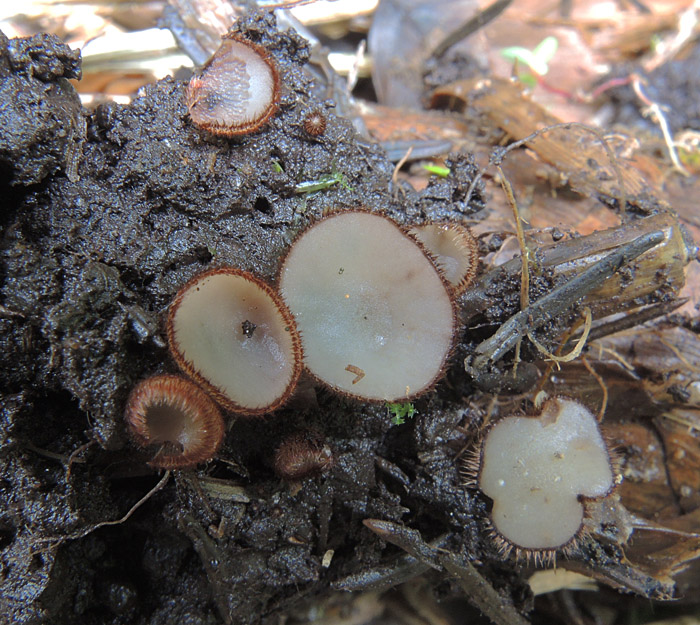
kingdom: Fungi
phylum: Ascomycota
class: Pezizomycetes
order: Pezizales
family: Pyronemataceae
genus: Trichophaea
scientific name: Trichophaea gregaria
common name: tensporet børstebæger
